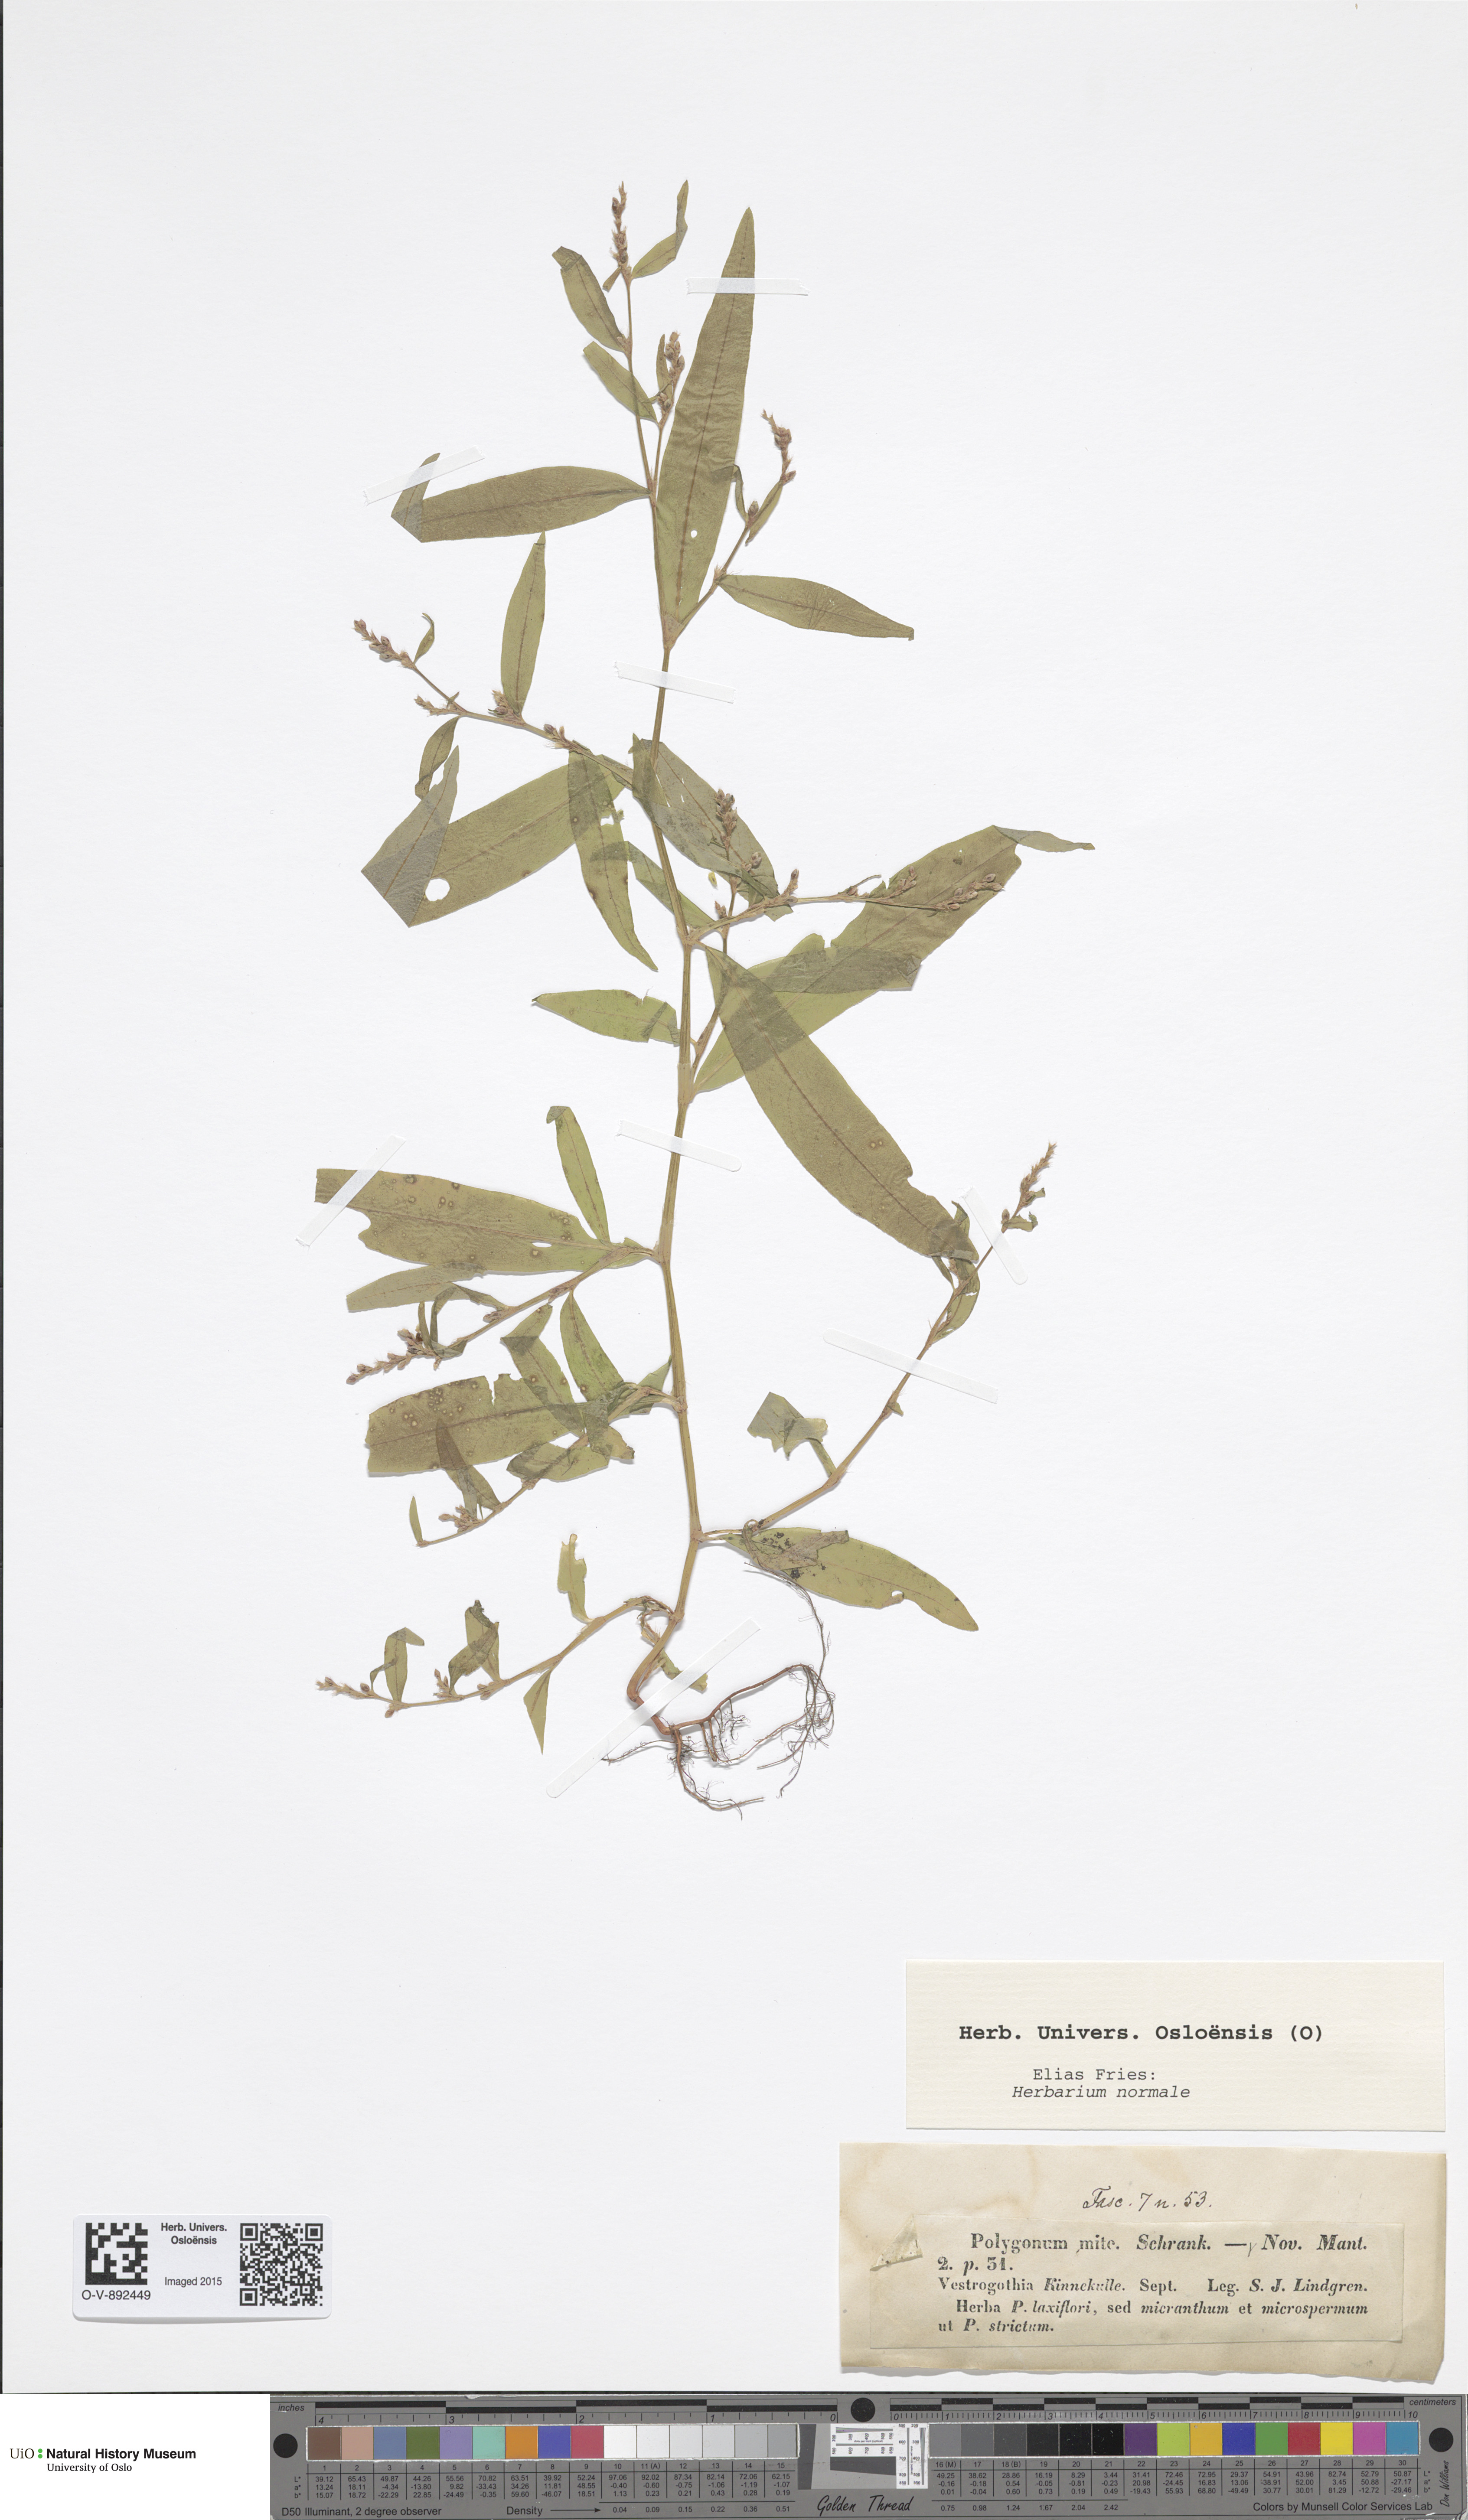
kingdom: Plantae
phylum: Tracheophyta
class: Magnoliopsida
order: Caryophyllales
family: Polygonaceae
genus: Persicaria
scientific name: Persicaria minor
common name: Small water-pepper
